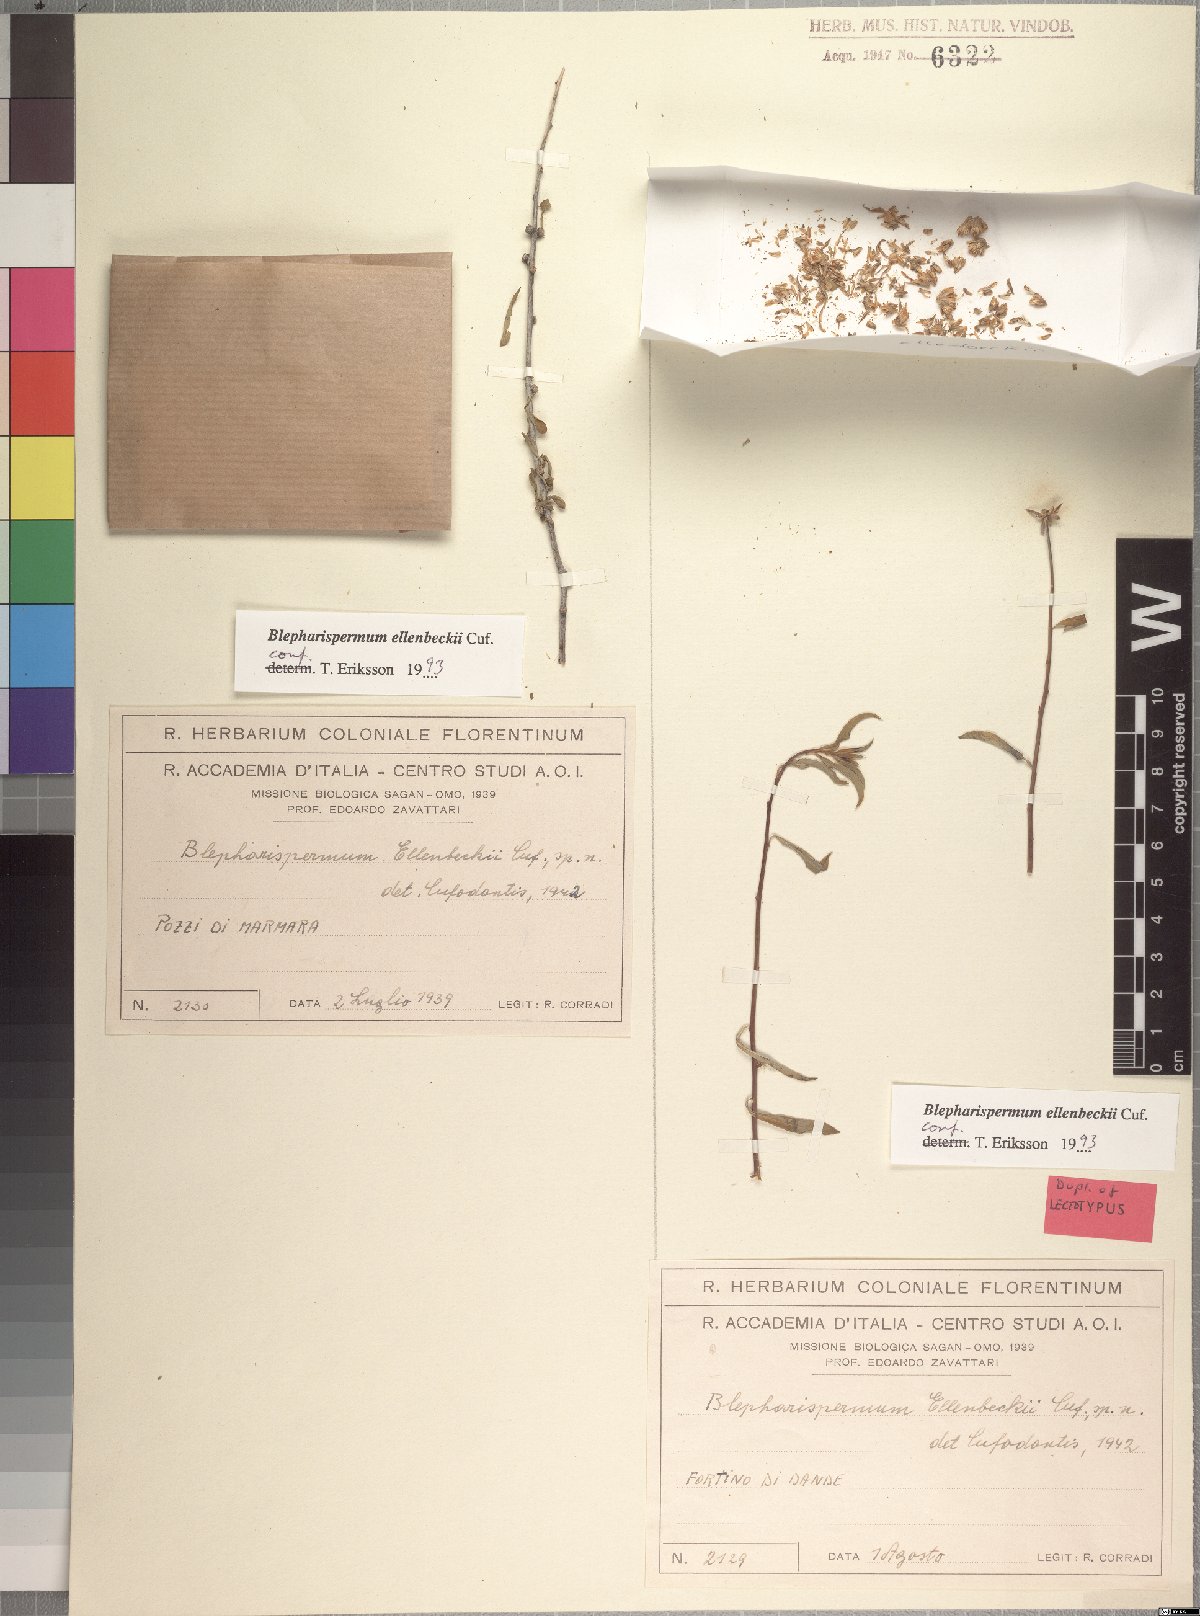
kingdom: Plantae
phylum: Tracheophyta
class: Magnoliopsida
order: Asterales
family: Asteraceae
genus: Blepharispermum
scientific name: Blepharispermum ellenbeckii
